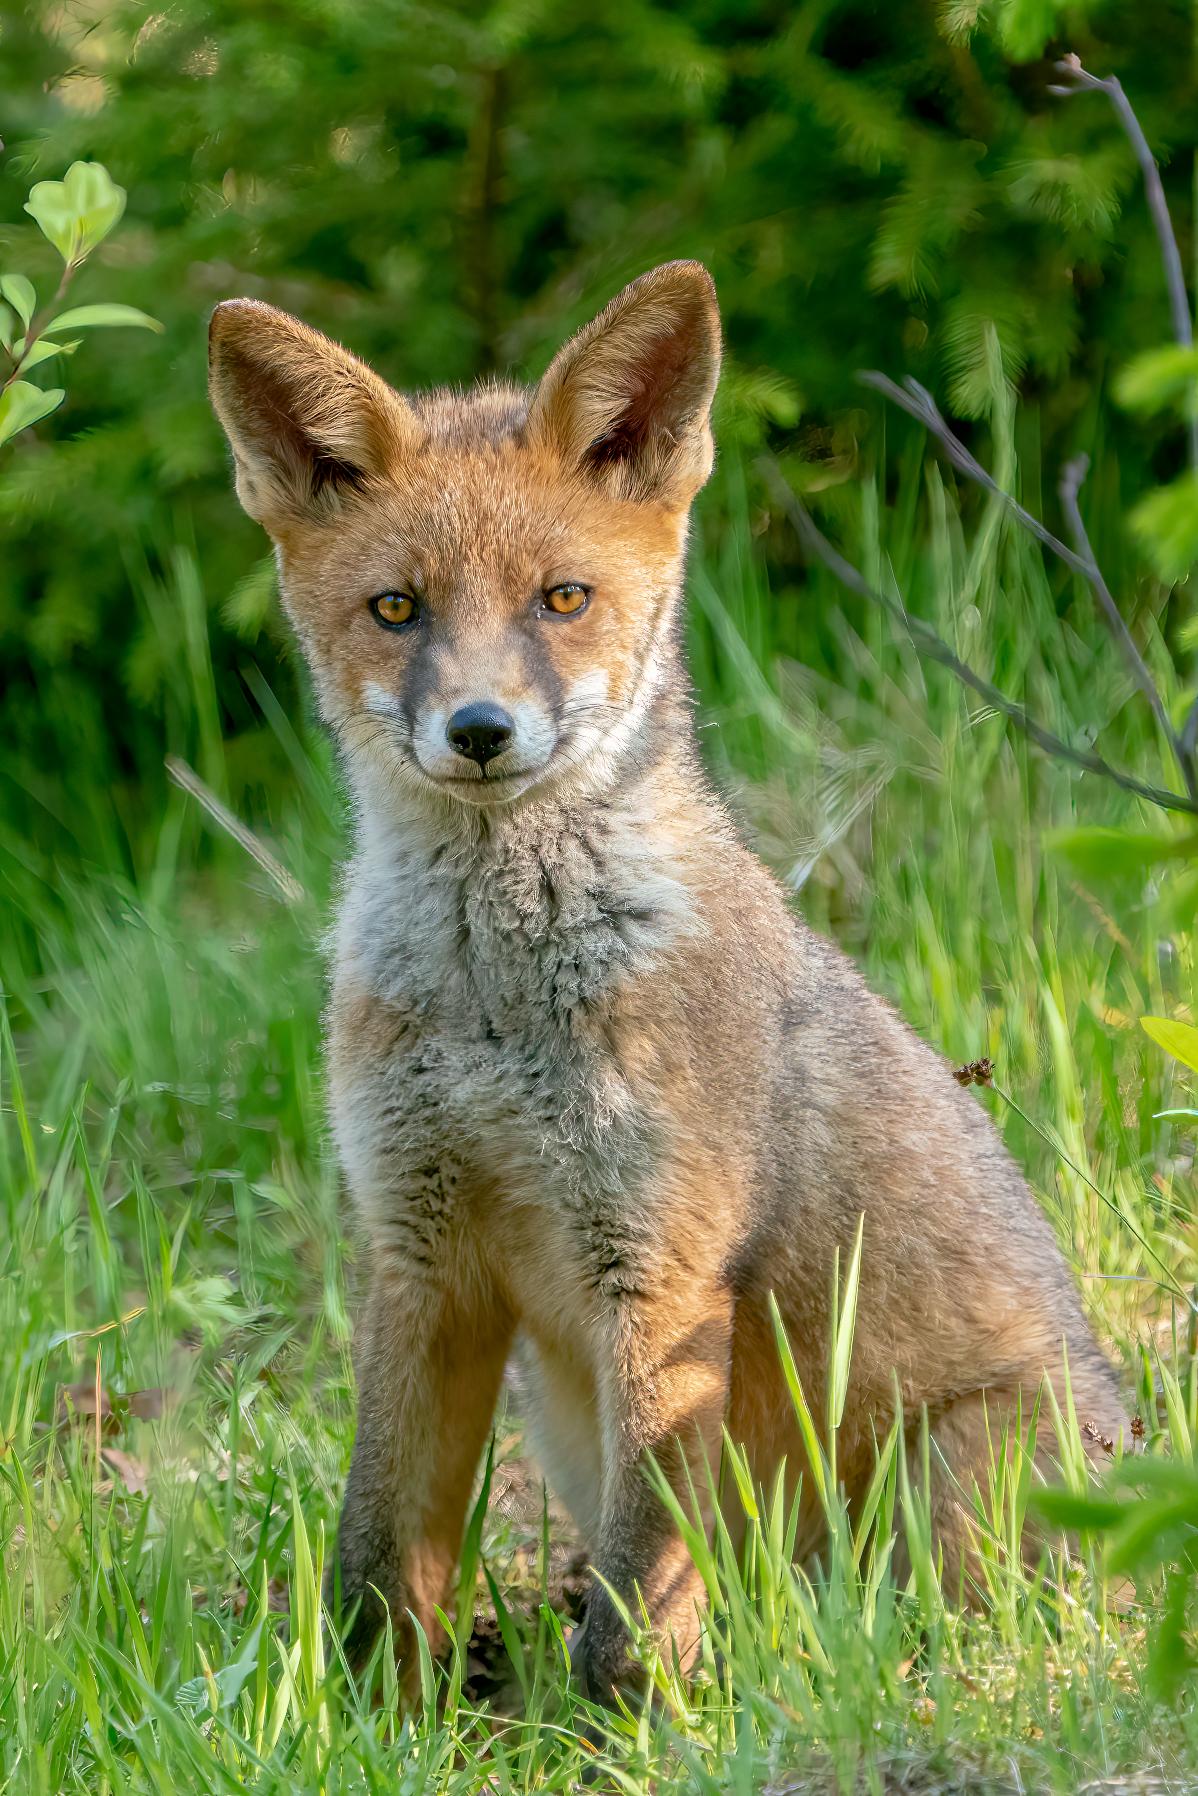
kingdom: Animalia
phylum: Chordata
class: Mammalia
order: Carnivora
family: Canidae
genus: Vulpes
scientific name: Vulpes vulpes
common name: Ræv
